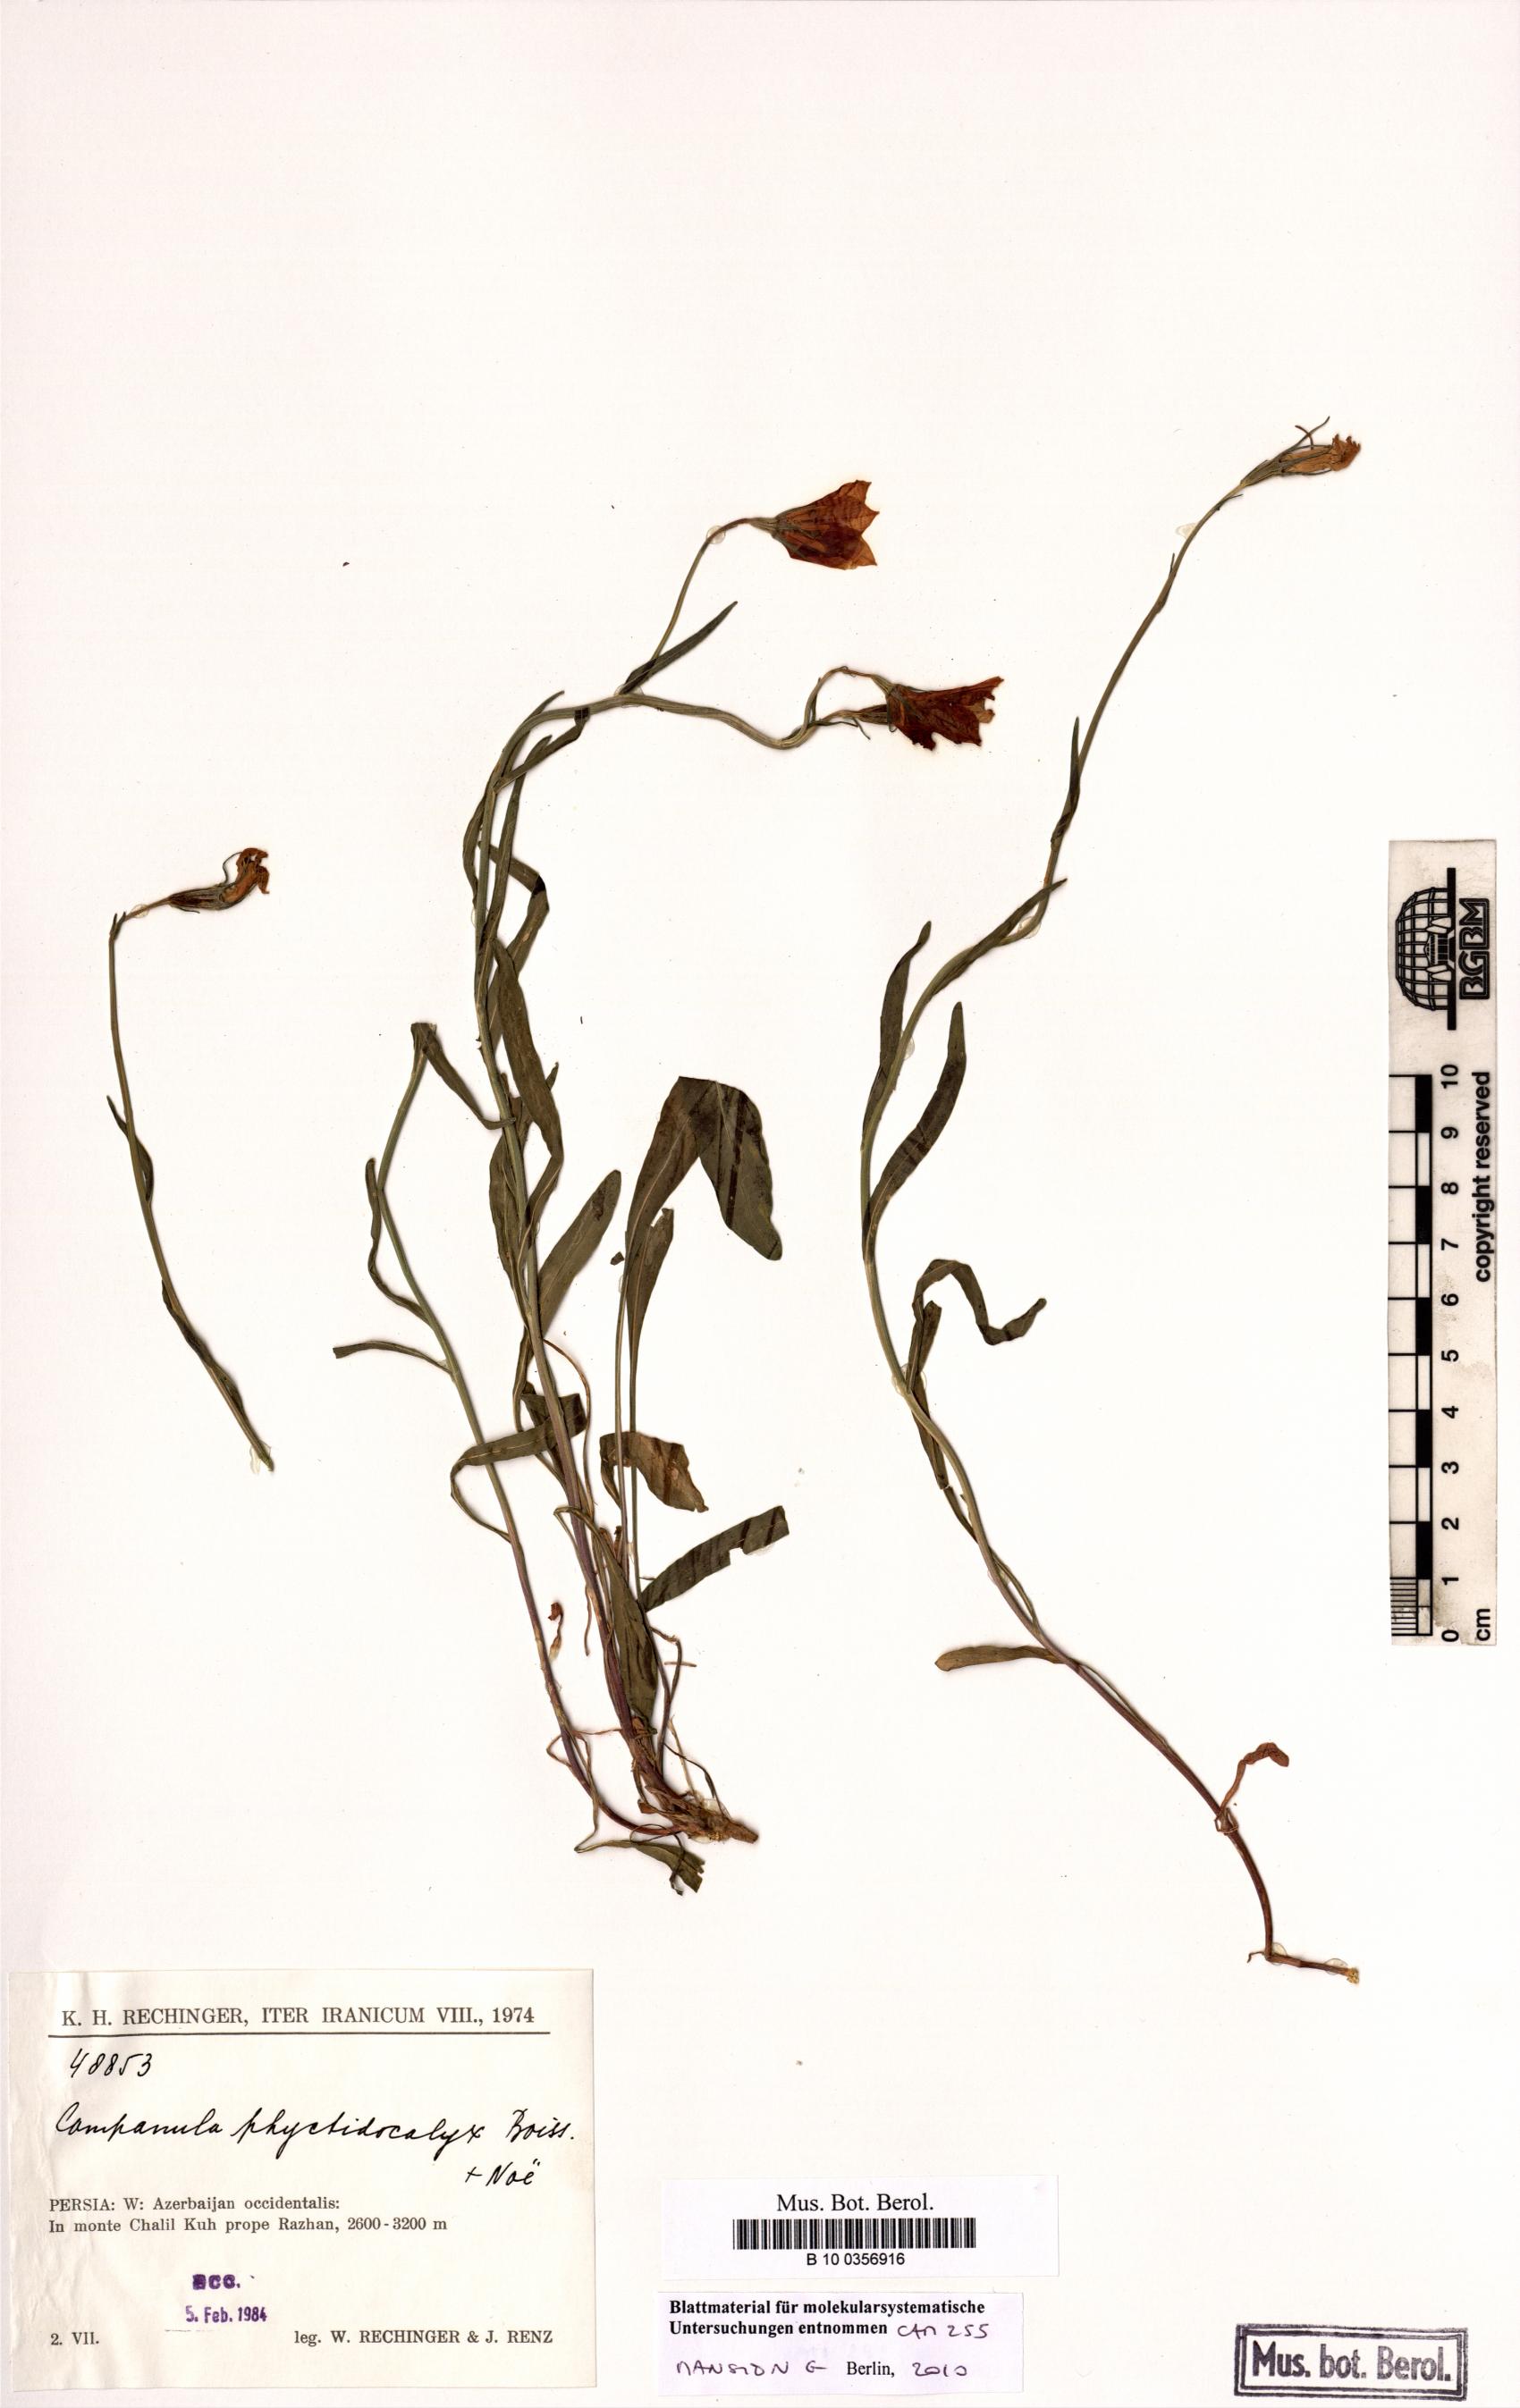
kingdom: Plantae
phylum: Tracheophyta
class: Magnoliopsida
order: Asterales
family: Campanulaceae
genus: Campanula
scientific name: Campanula phyctidocalyx
